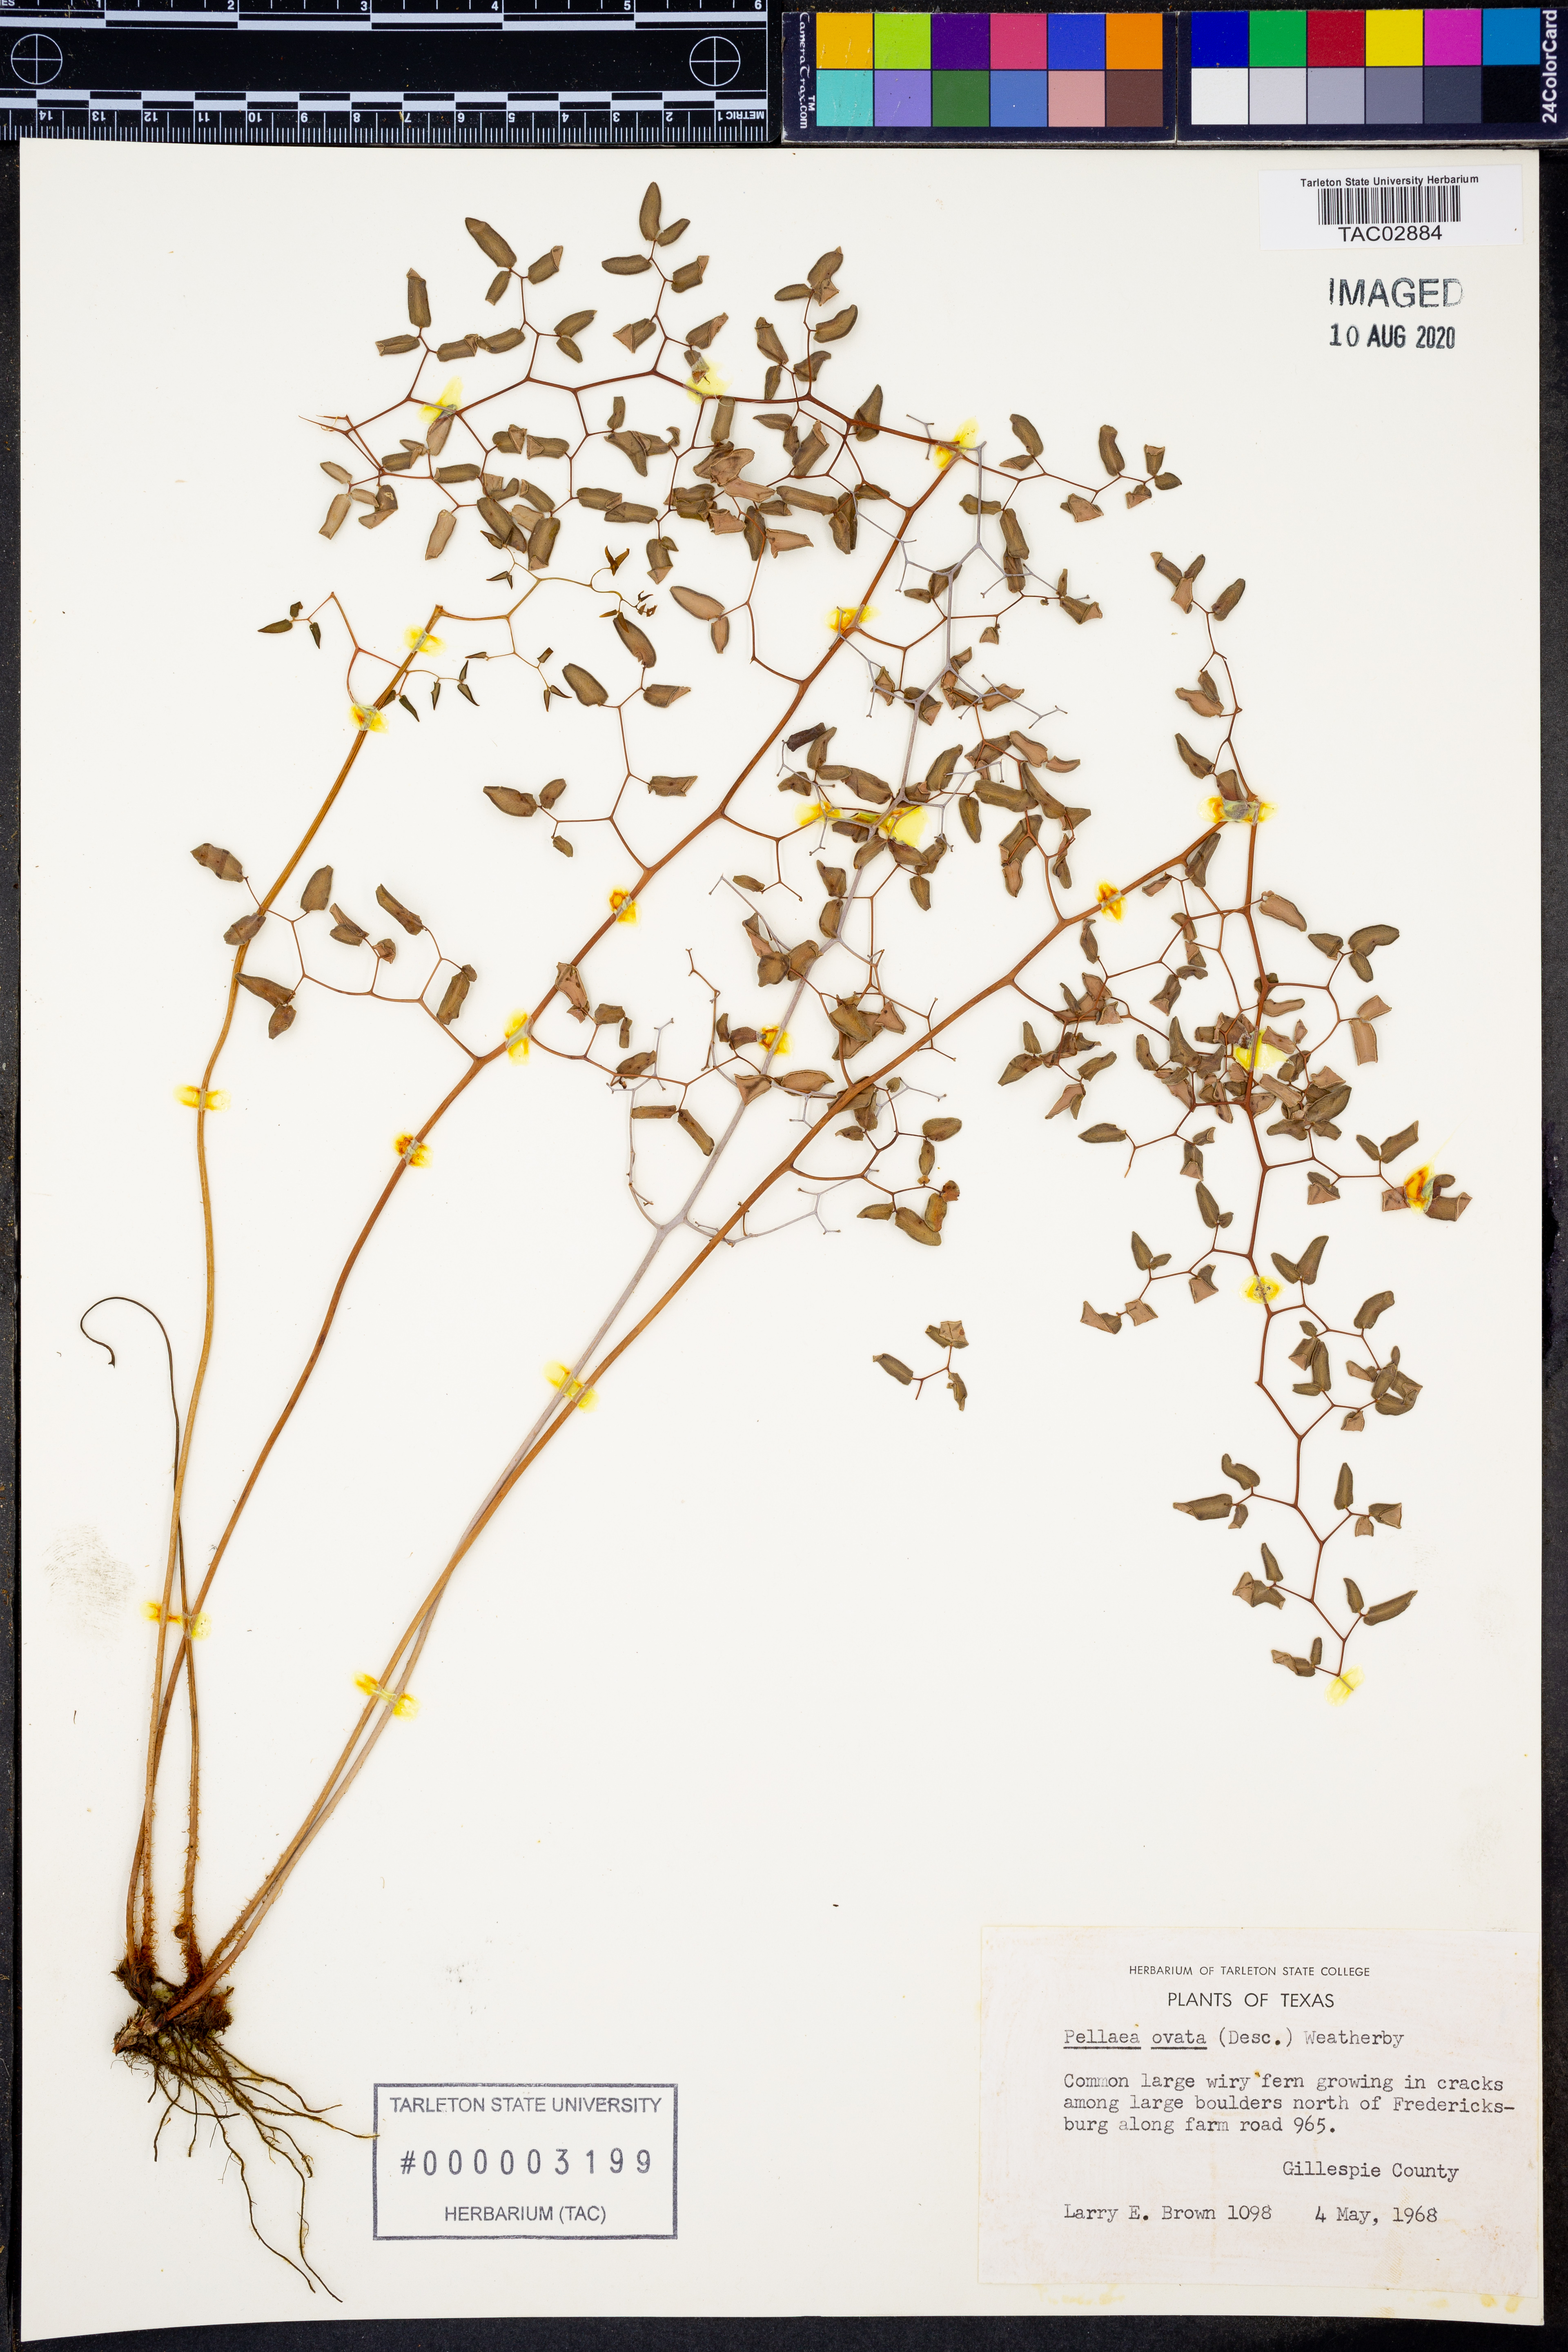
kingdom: Plantae
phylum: Tracheophyta
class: Polypodiopsida
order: Polypodiales
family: Pteridaceae
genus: Pellaea
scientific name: Pellaea ovata
